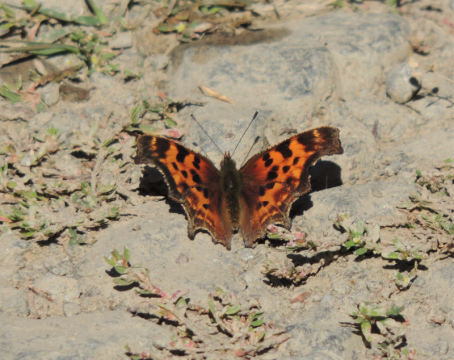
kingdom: Animalia
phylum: Arthropoda
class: Insecta
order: Lepidoptera
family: Nymphalidae
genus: Polygonia
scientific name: Polygonia satyrus
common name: Satyr Comma
